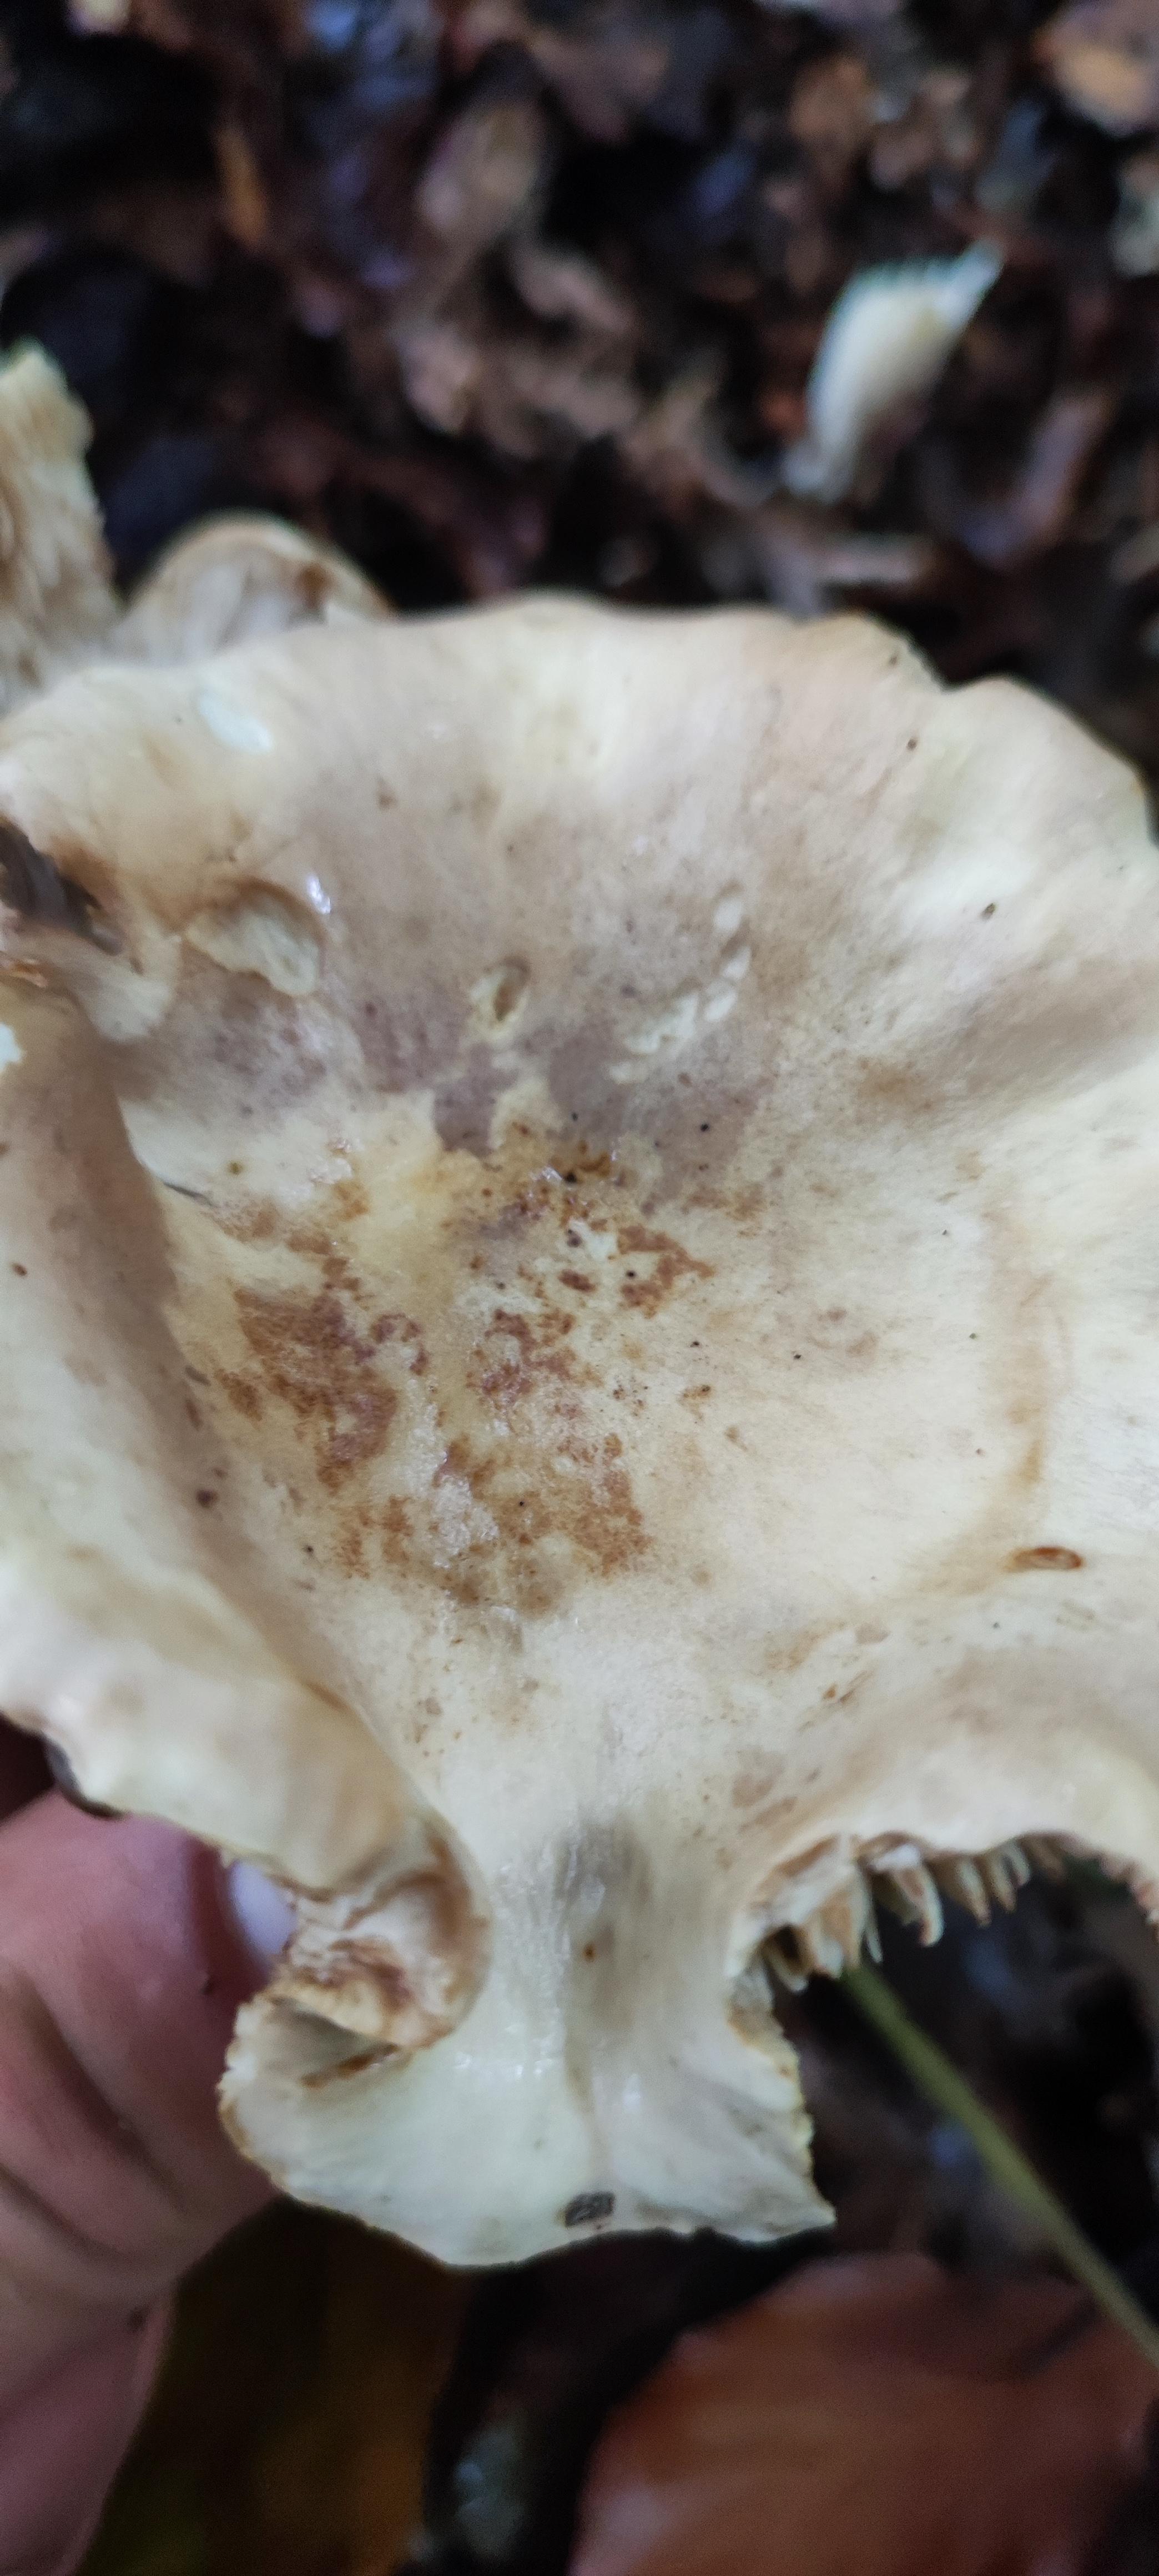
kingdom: Fungi
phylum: Basidiomycota
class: Agaricomycetes
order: Agaricales
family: Tricholomataceae
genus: Tricholoma
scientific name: Tricholoma lascivum
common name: stinkende ridderhat
